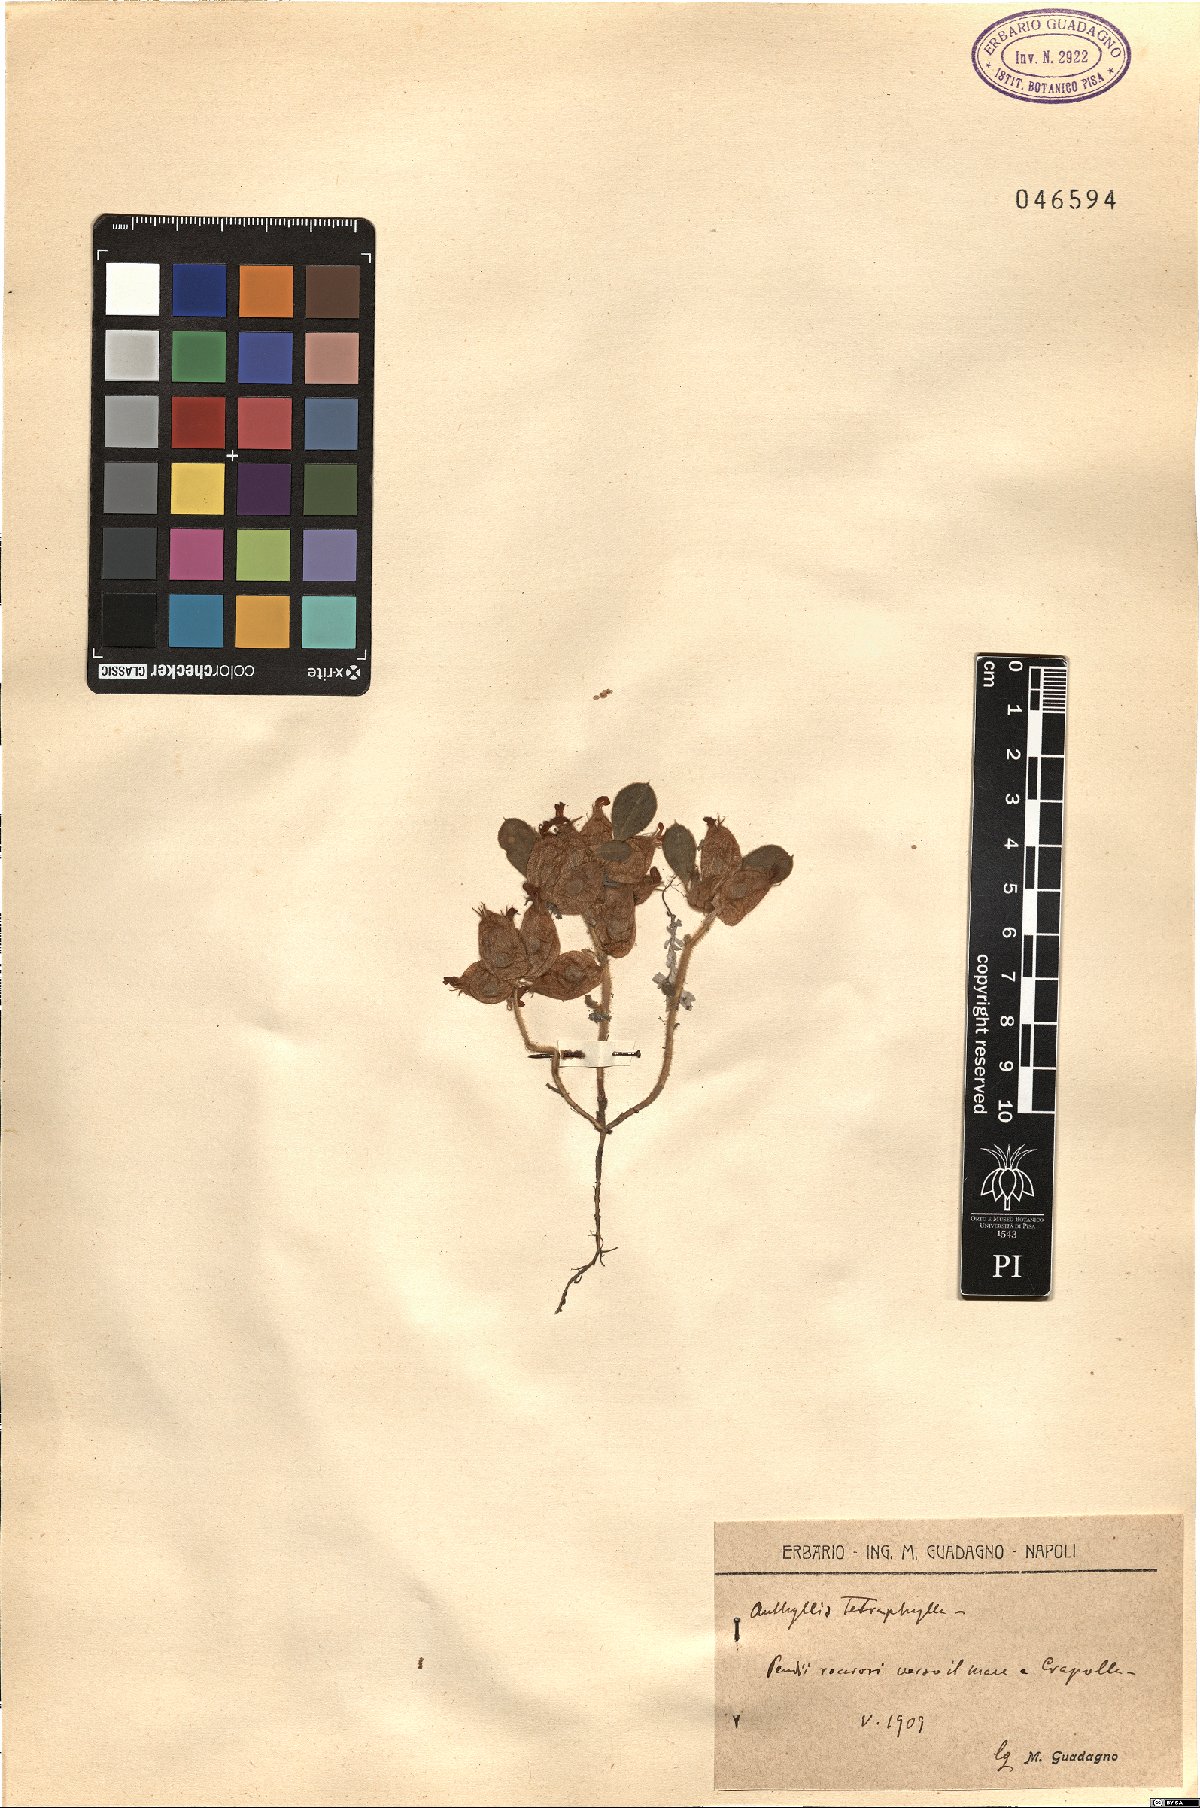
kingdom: Plantae
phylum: Tracheophyta
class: Magnoliopsida
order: Fabales
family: Fabaceae
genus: Tripodion
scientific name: Tripodion tetraphyllum
